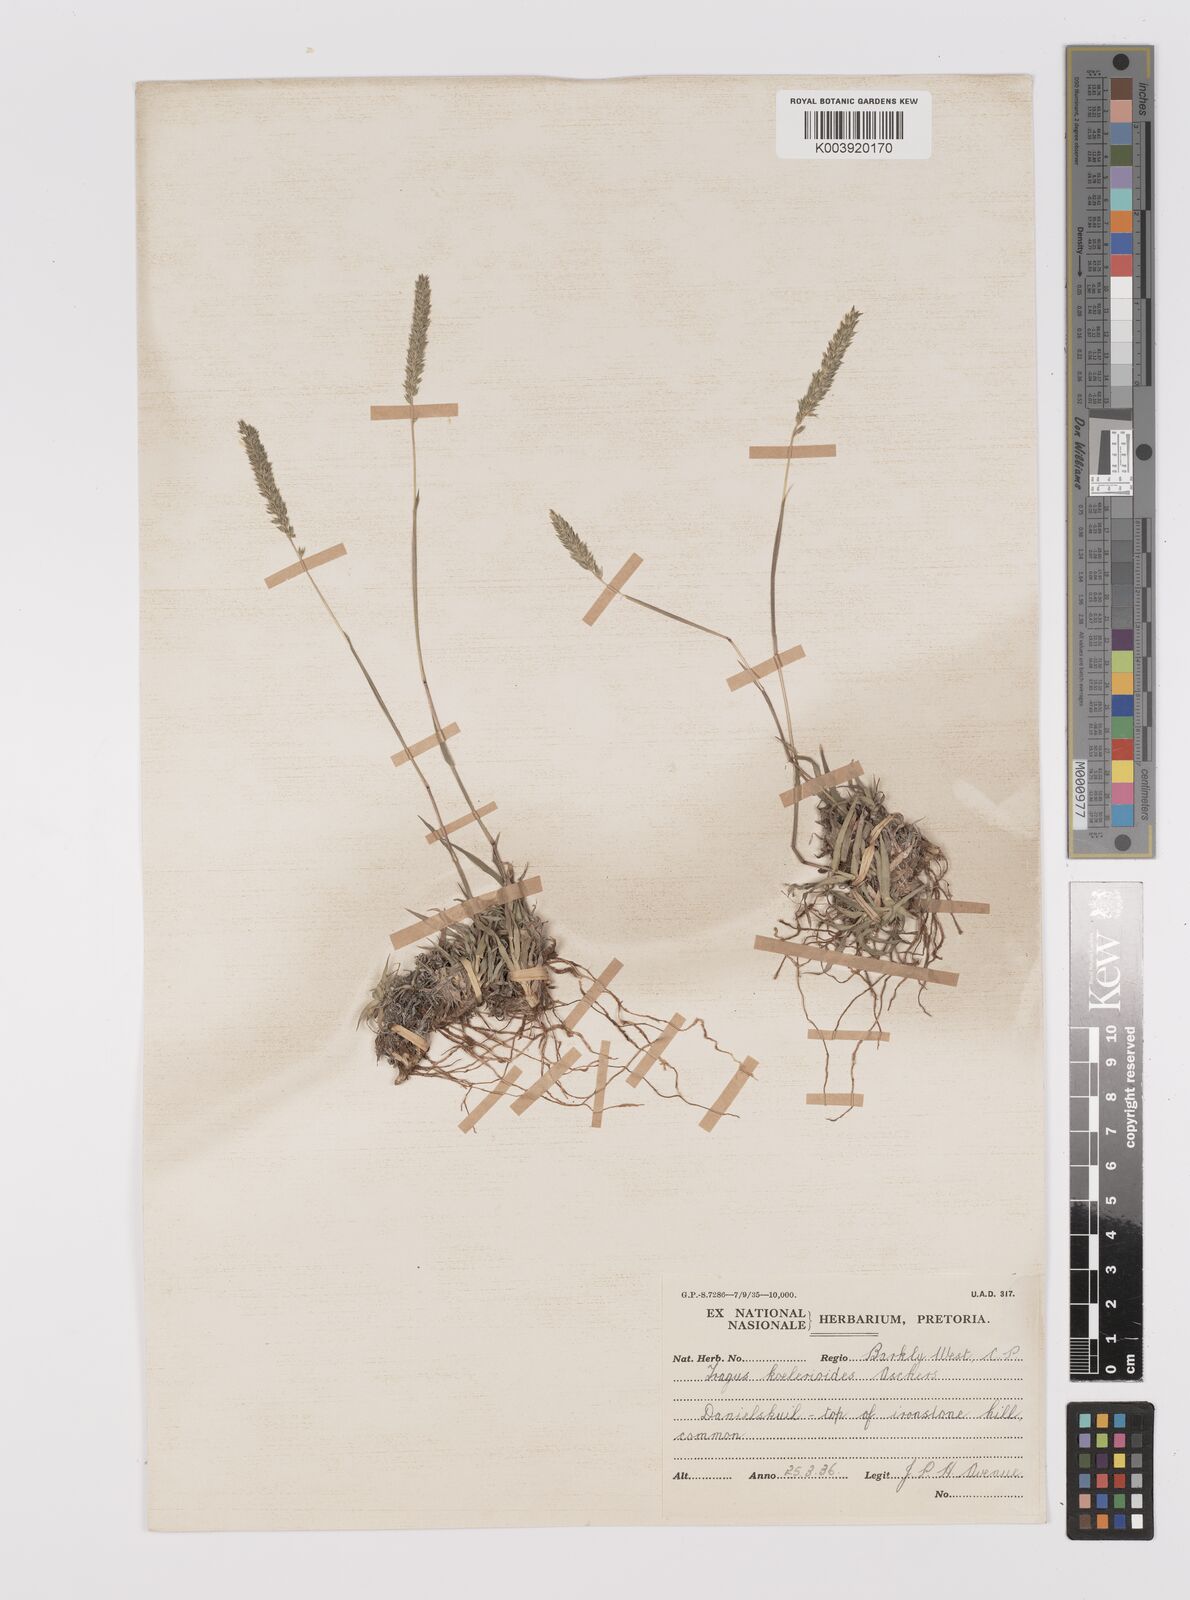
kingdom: Plantae
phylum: Tracheophyta
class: Liliopsida
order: Poales
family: Poaceae
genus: Tragus
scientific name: Tragus koelerioides
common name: Creeping carrot-seed grass
